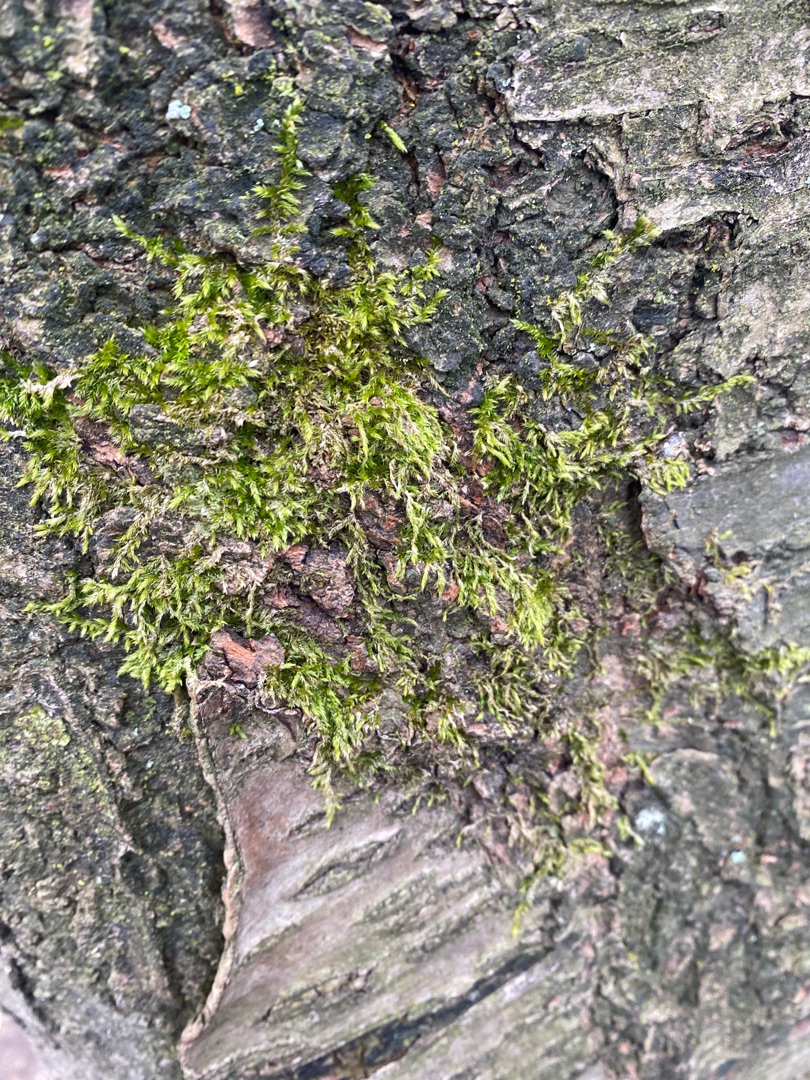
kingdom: Plantae
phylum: Bryophyta
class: Bryopsida
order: Hypnales
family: Hypnaceae
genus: Hypnum
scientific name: Hypnum
